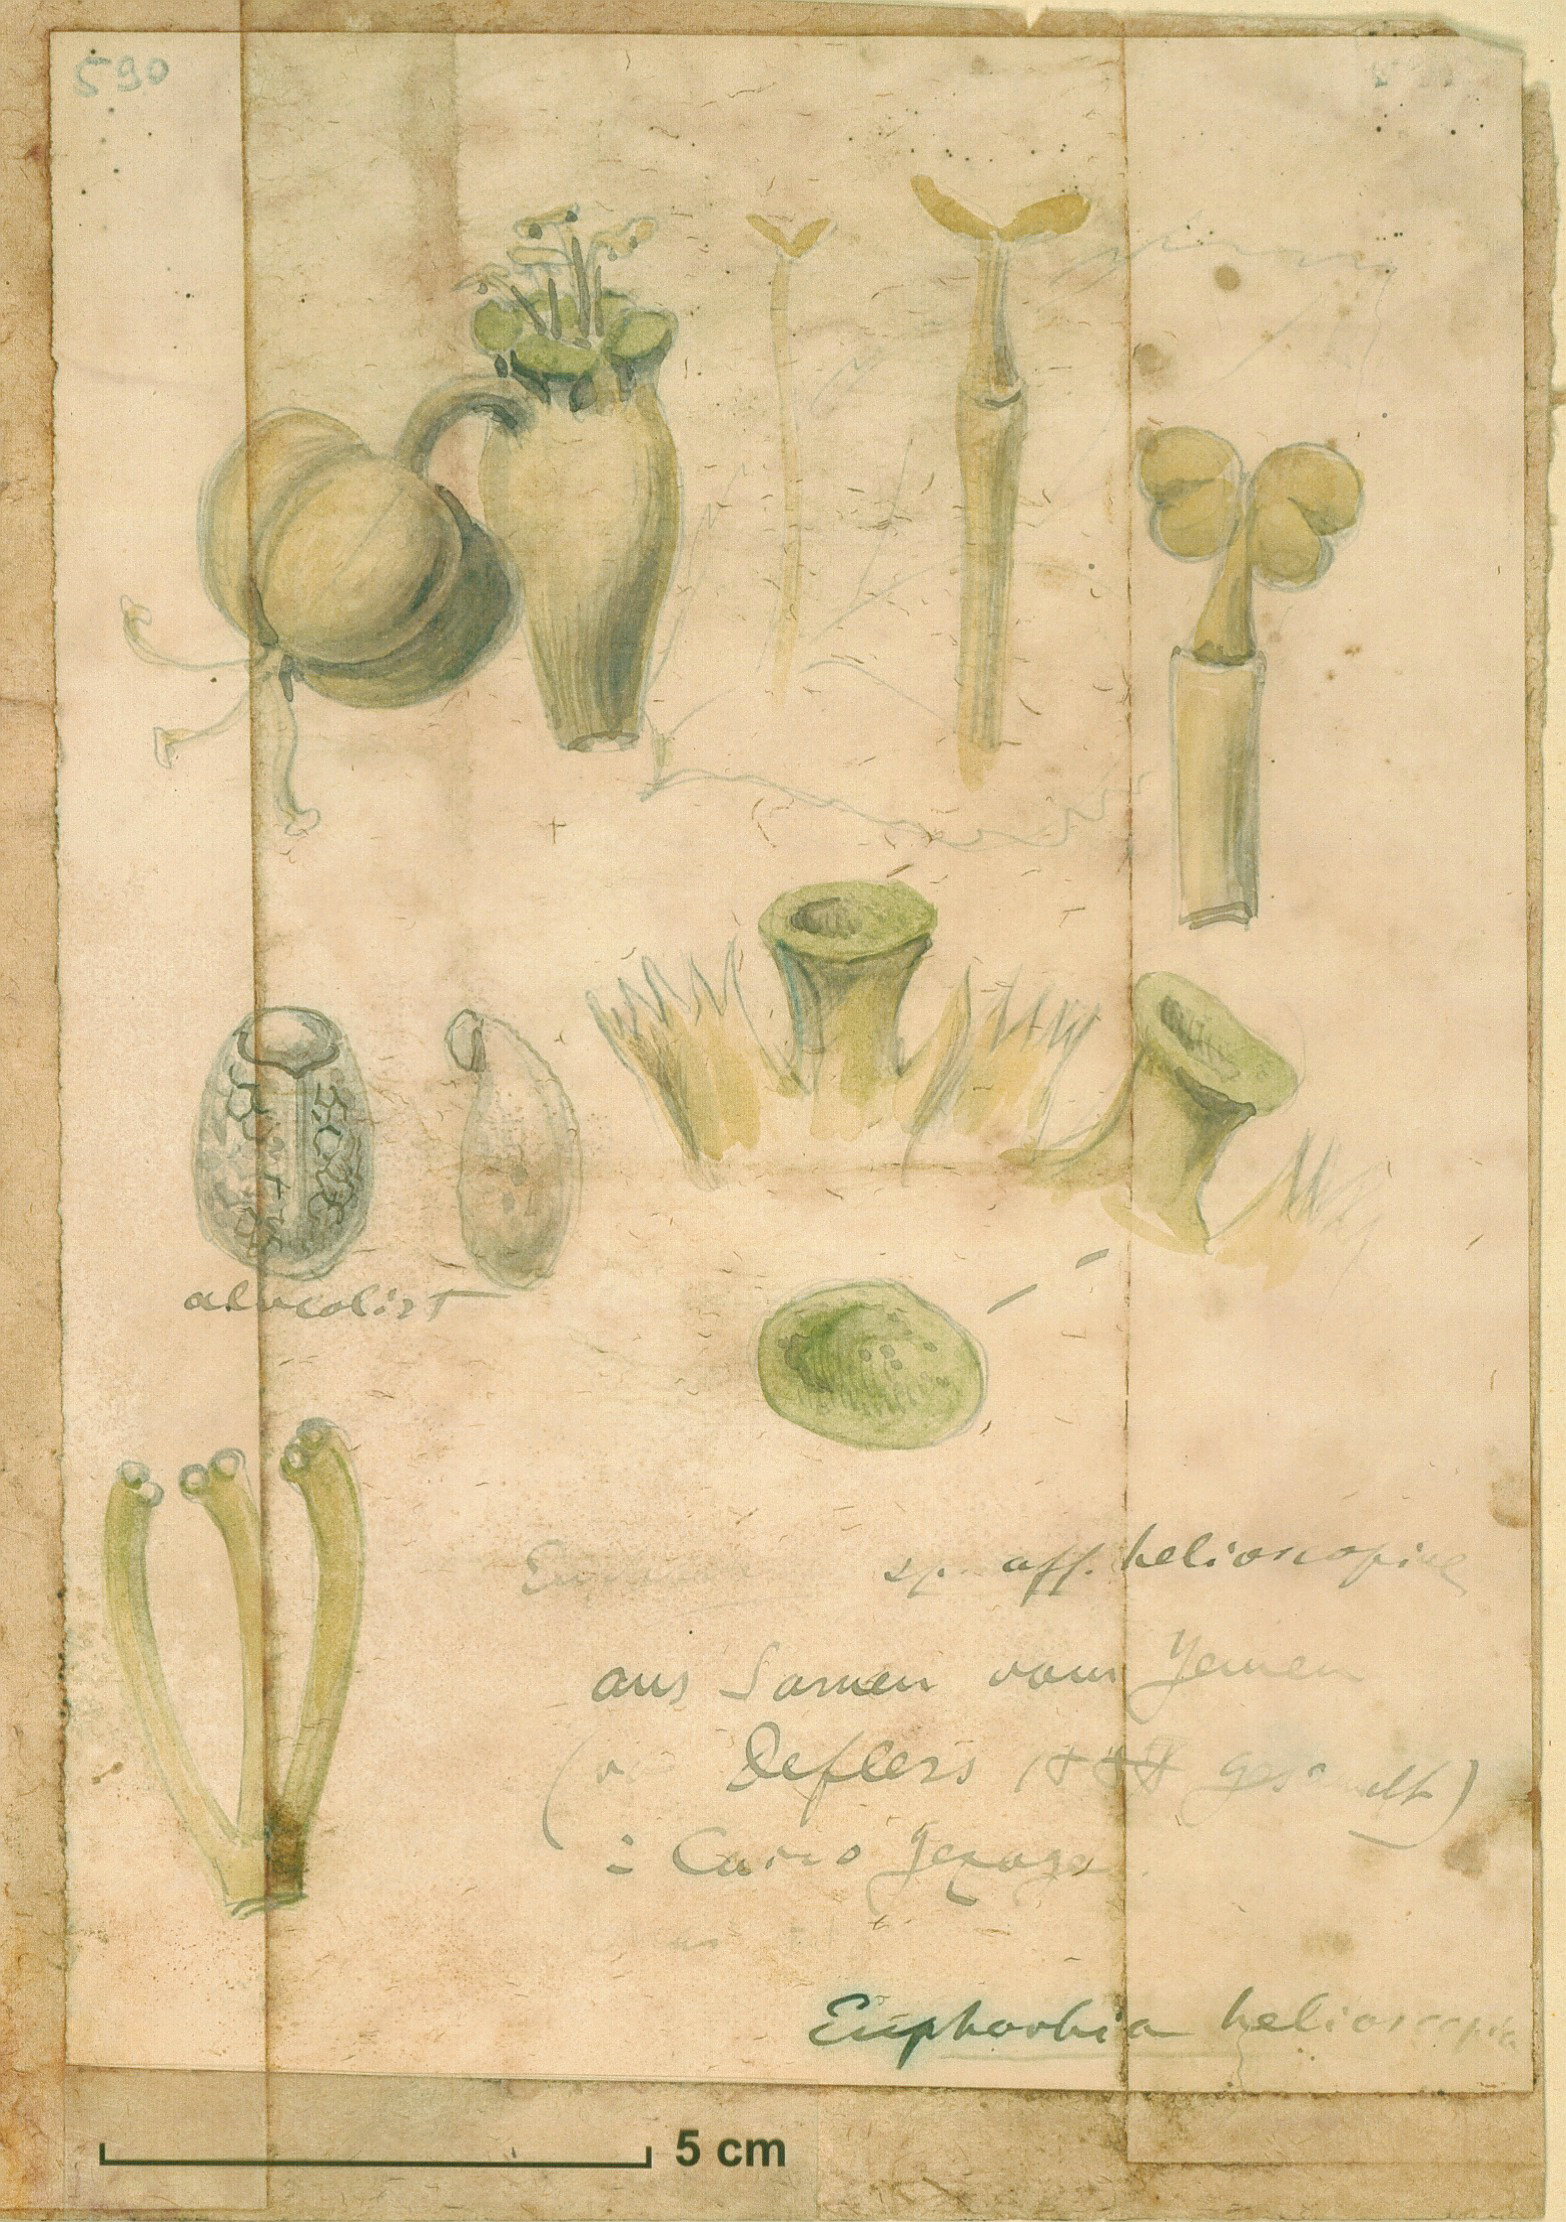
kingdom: Plantae
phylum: Tracheophyta
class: Magnoliopsida
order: Malpighiales
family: Euphorbiaceae
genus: Euphorbia
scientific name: Euphorbia helioscopia
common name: Sun spurge
